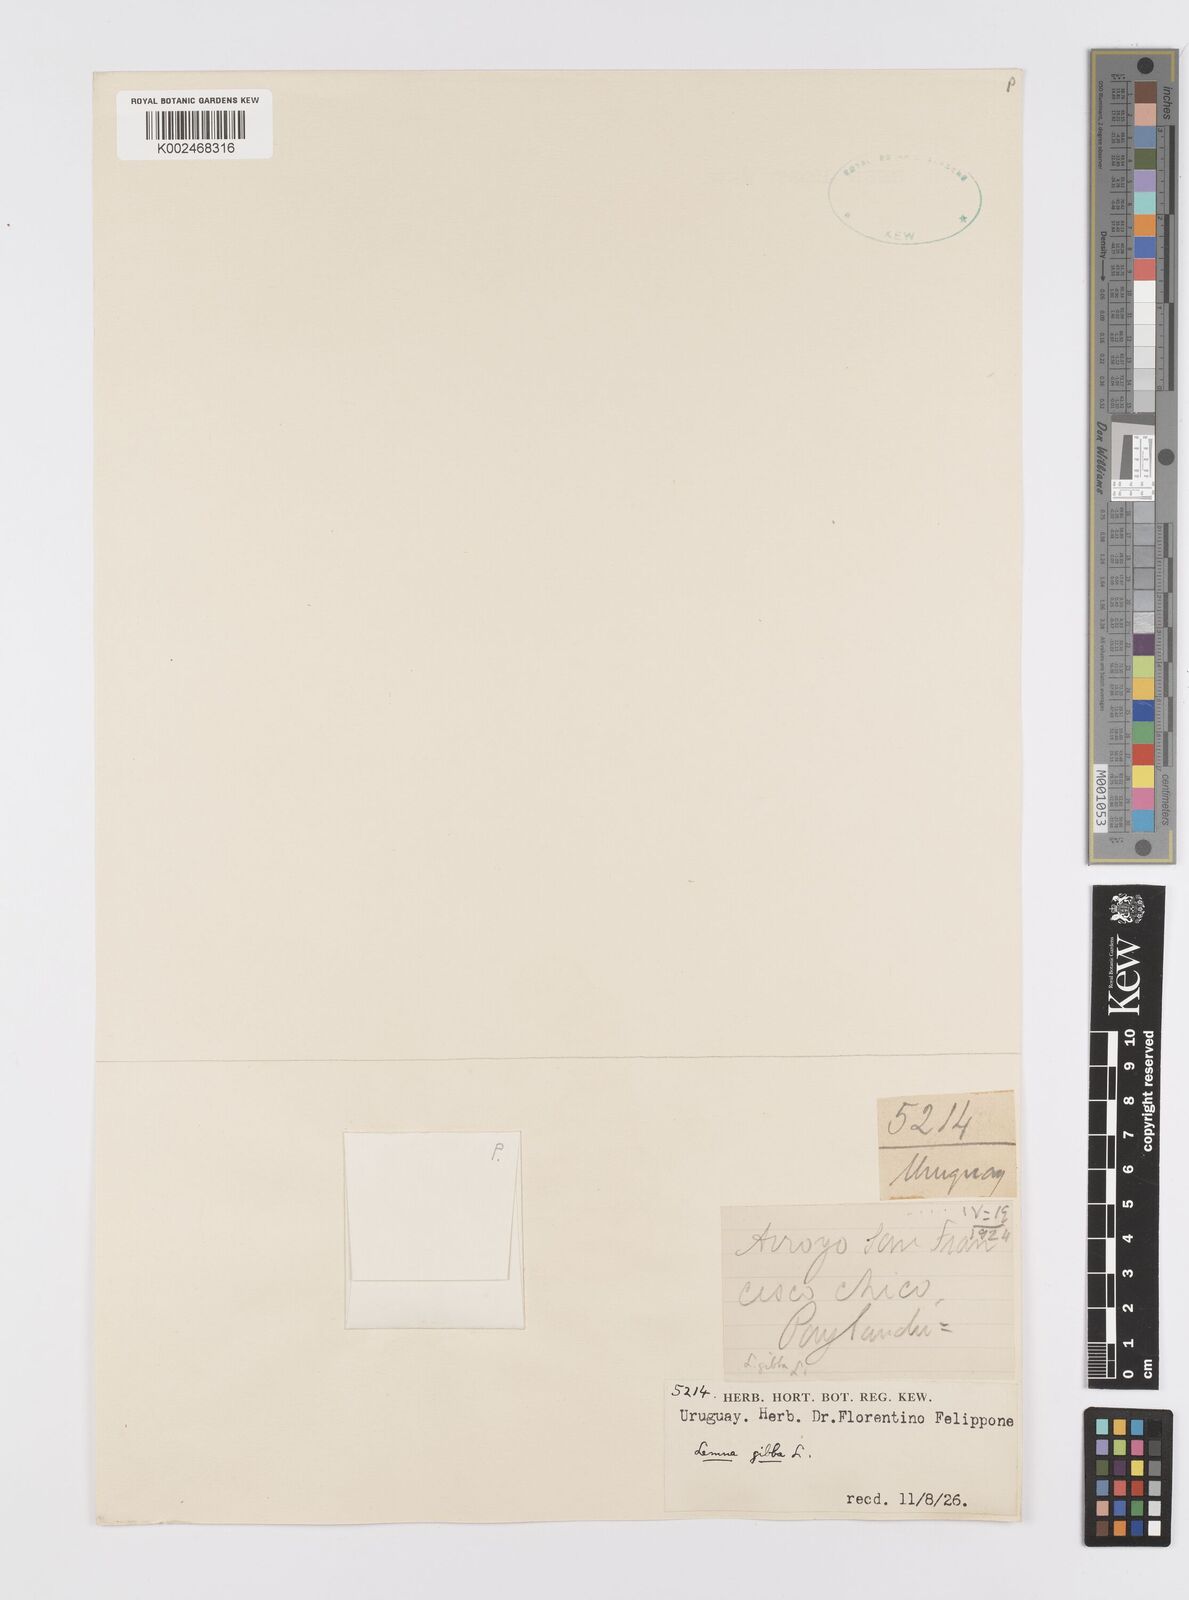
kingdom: Plantae
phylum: Tracheophyta
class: Liliopsida
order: Alismatales
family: Araceae
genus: Lemna
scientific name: Lemna gibba
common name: Fat duckweed
